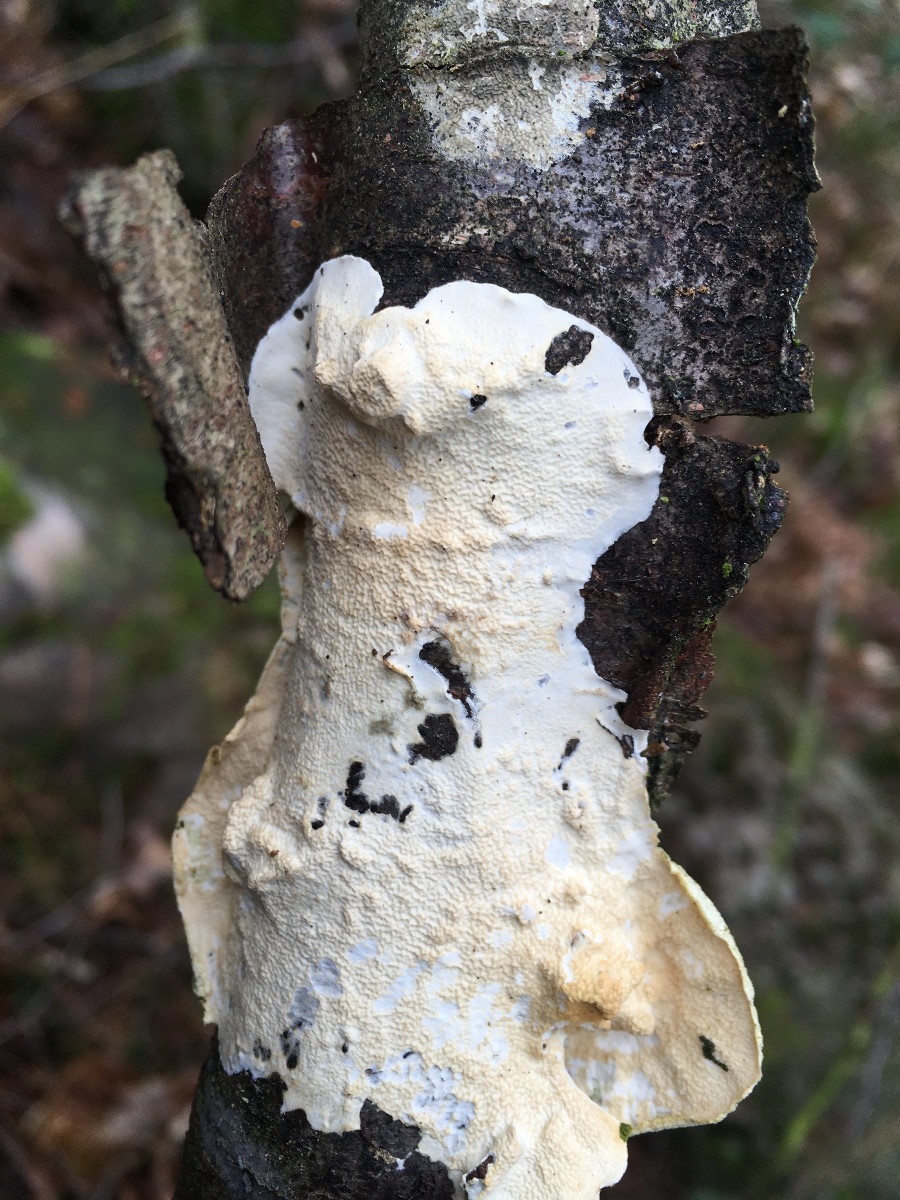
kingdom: Fungi
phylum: Basidiomycota
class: Agaricomycetes
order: Polyporales
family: Irpicaceae
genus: Byssomerulius
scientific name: Byssomerulius corium
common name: læder-åresvamp
